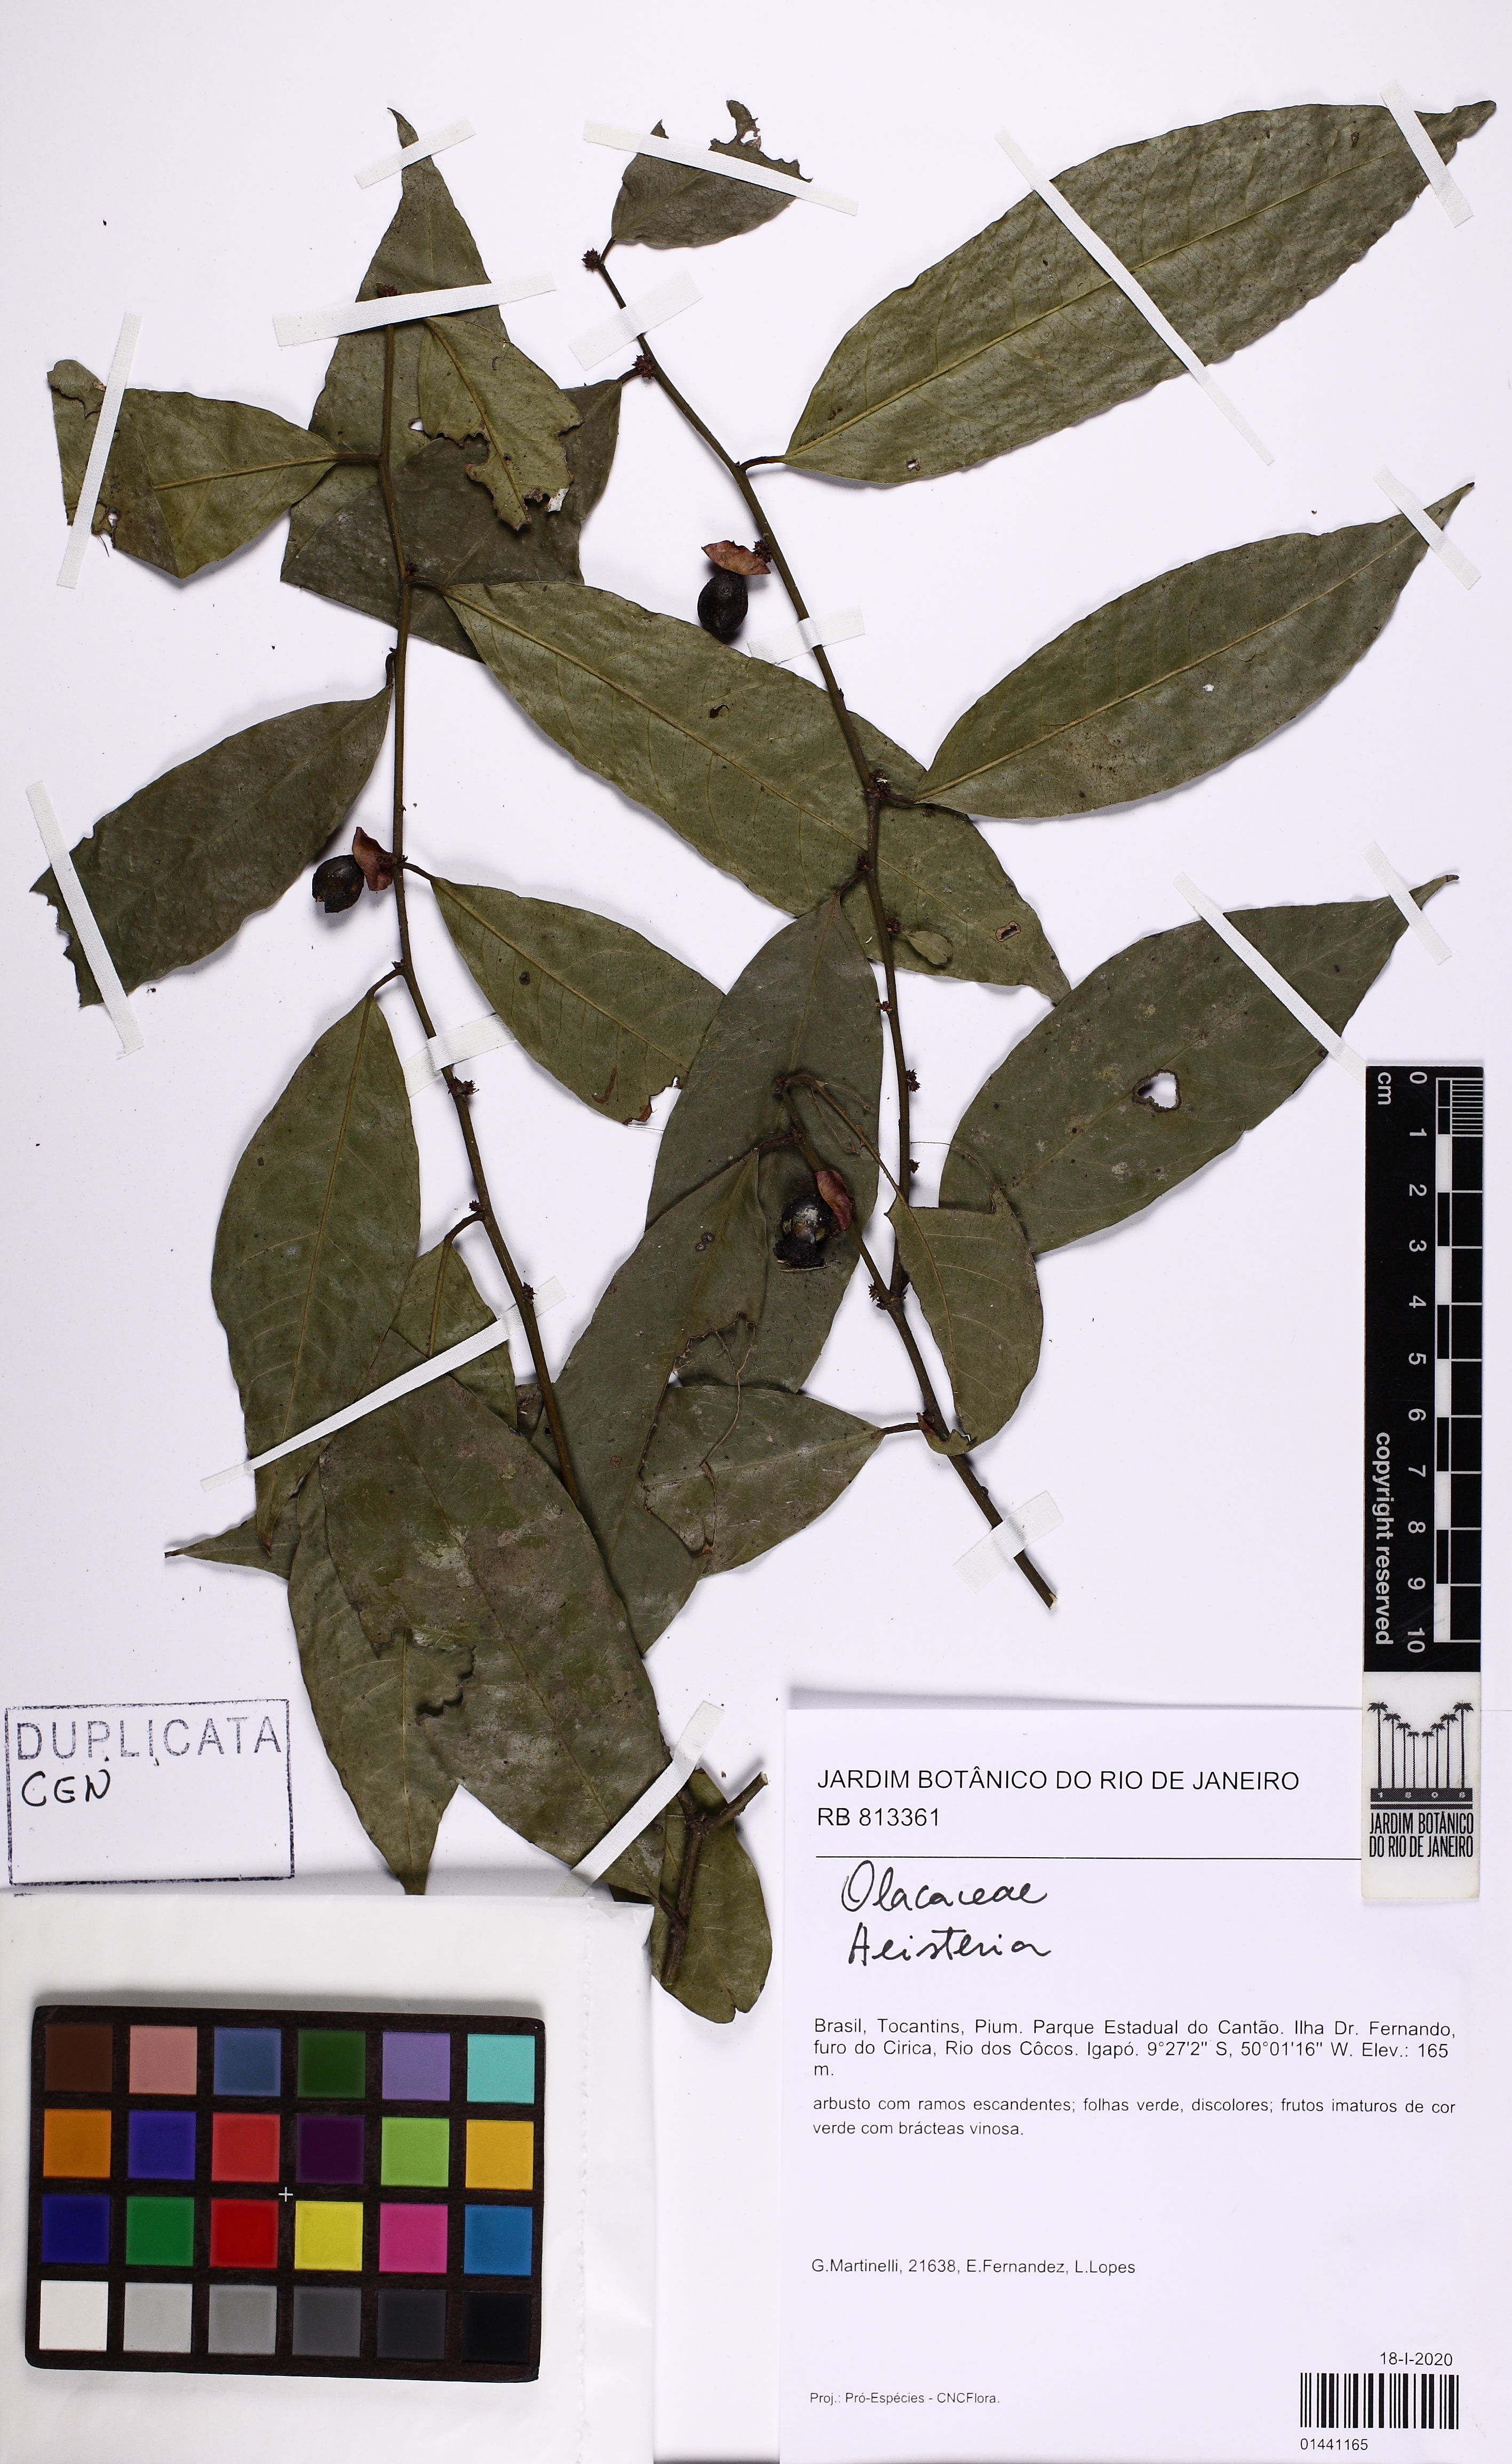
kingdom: Plantae
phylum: Tracheophyta
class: Magnoliopsida
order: Santalales
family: Erythropalaceae
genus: Heisteria
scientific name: Heisteria
